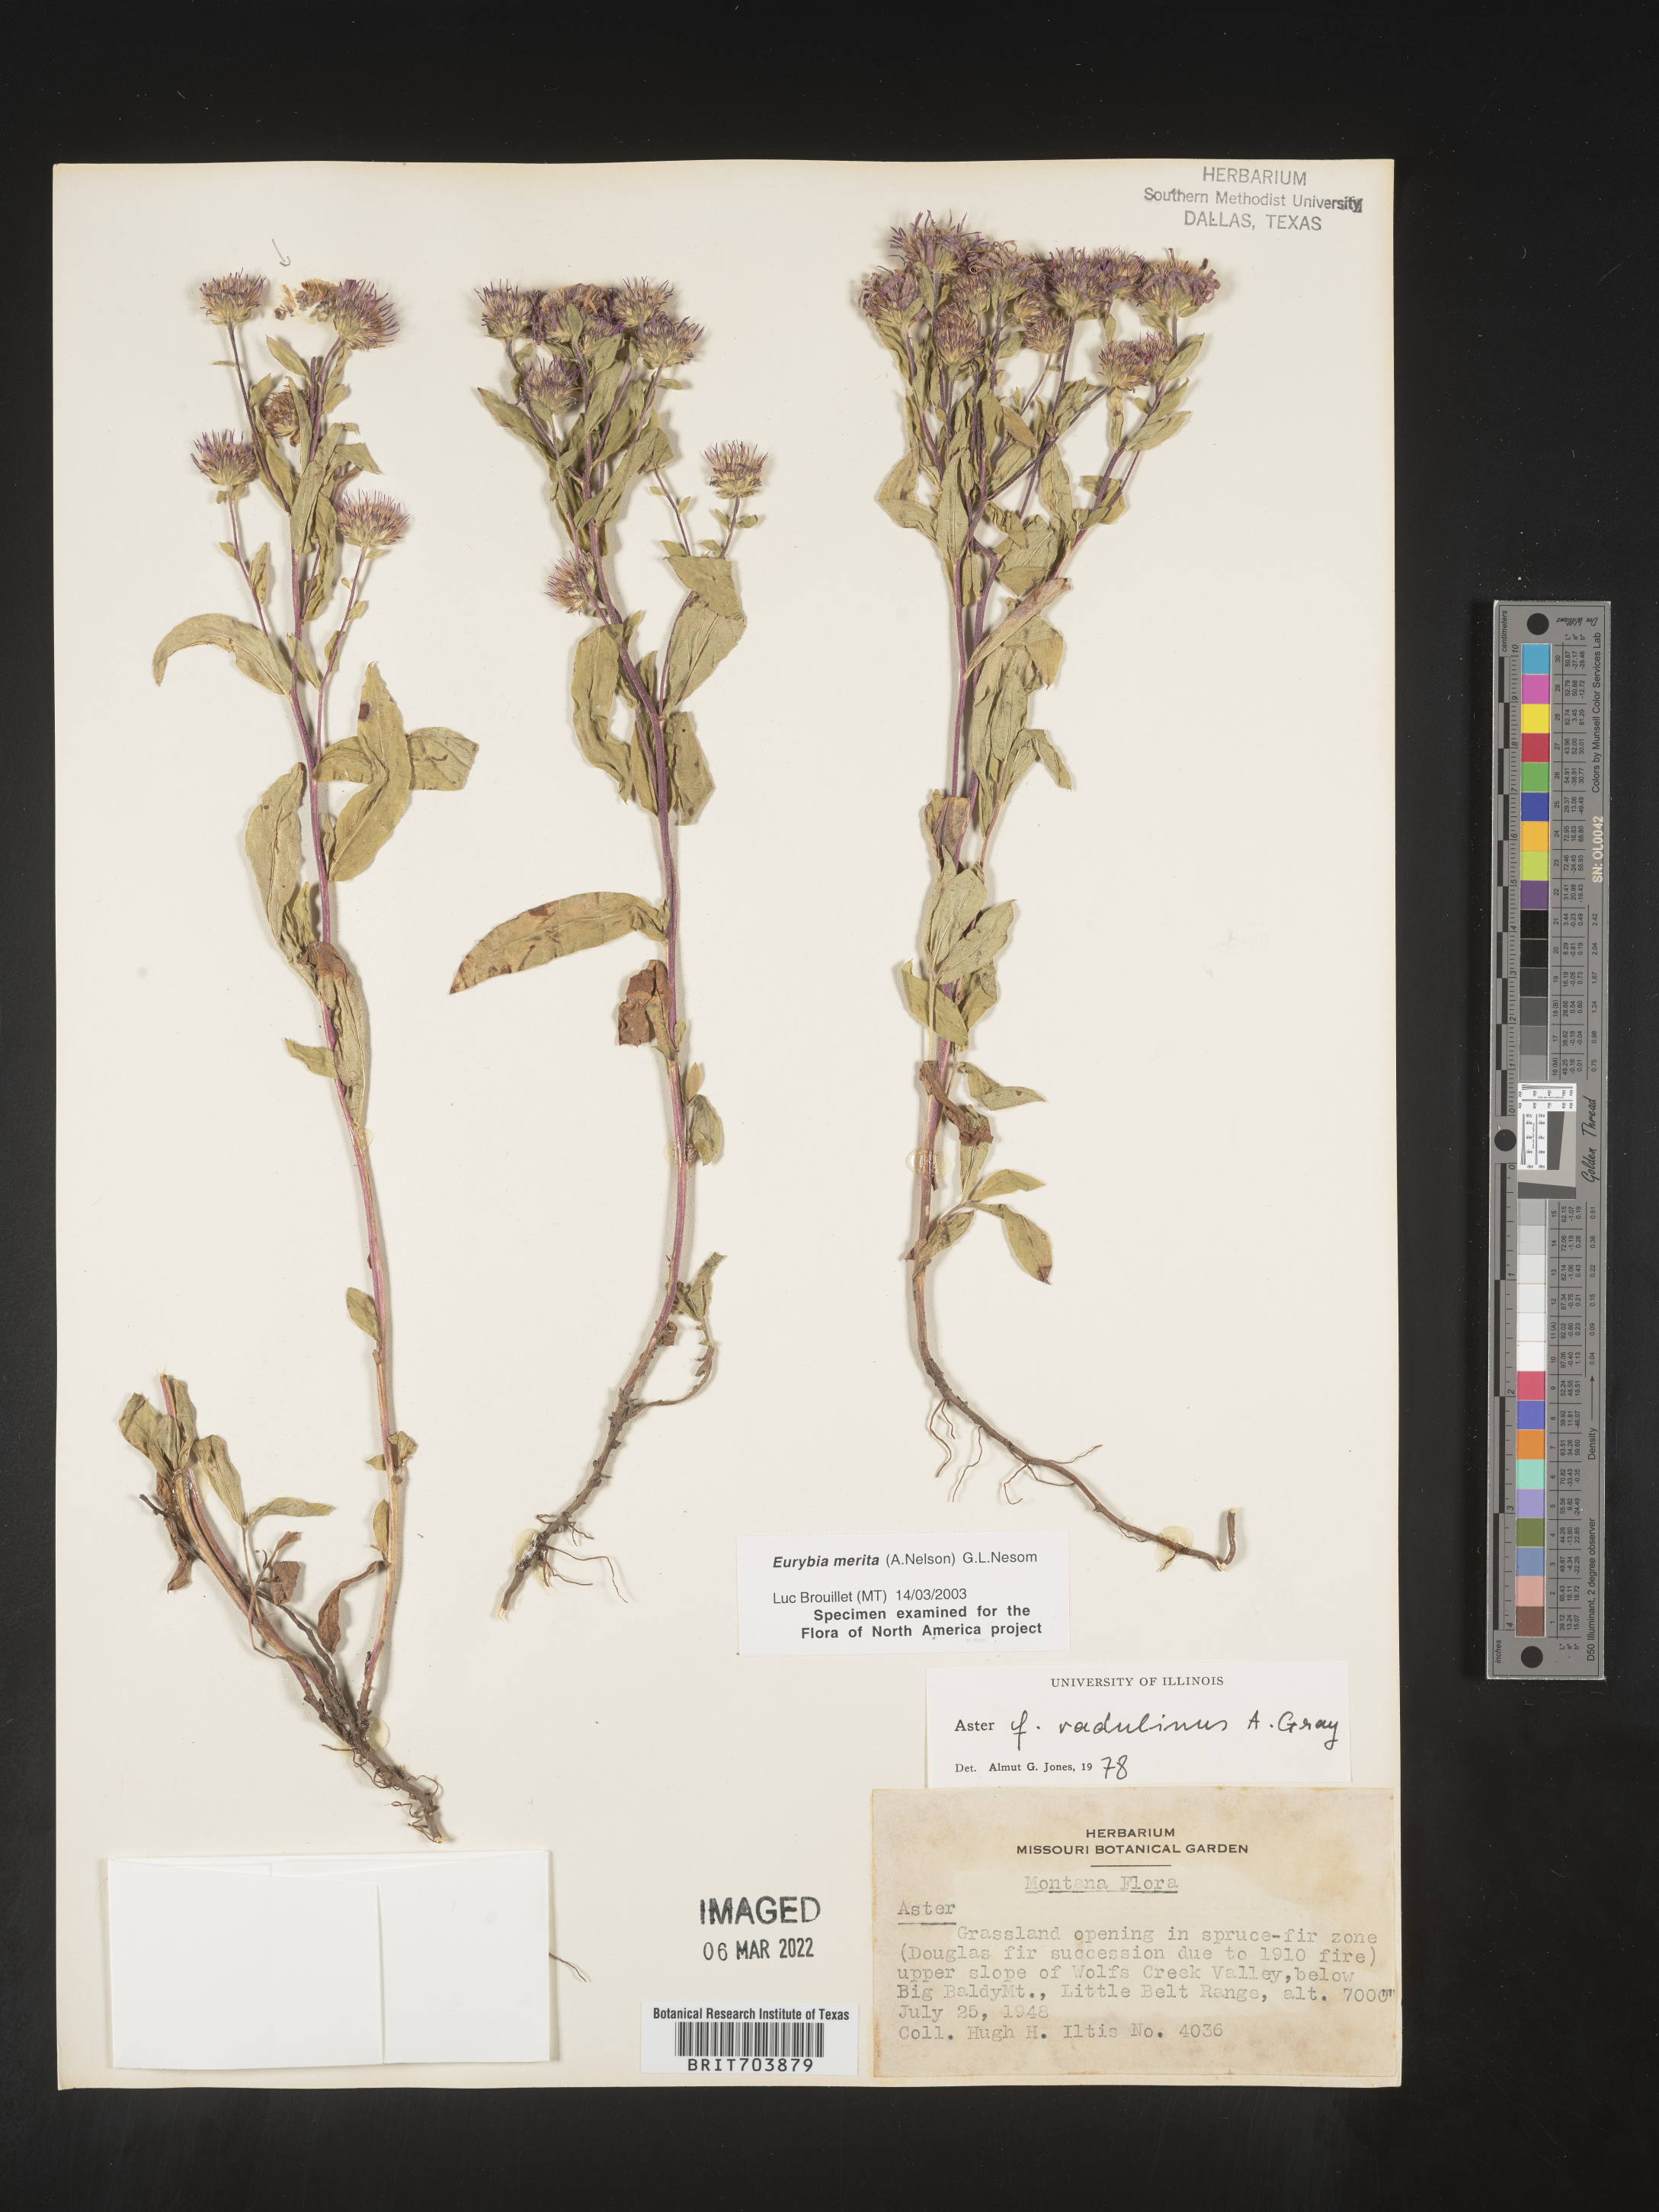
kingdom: Plantae
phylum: Tracheophyta
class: Magnoliopsida
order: Asterales
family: Asteraceae
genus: Eurybia
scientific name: Eurybia merita
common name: Arctic aster
